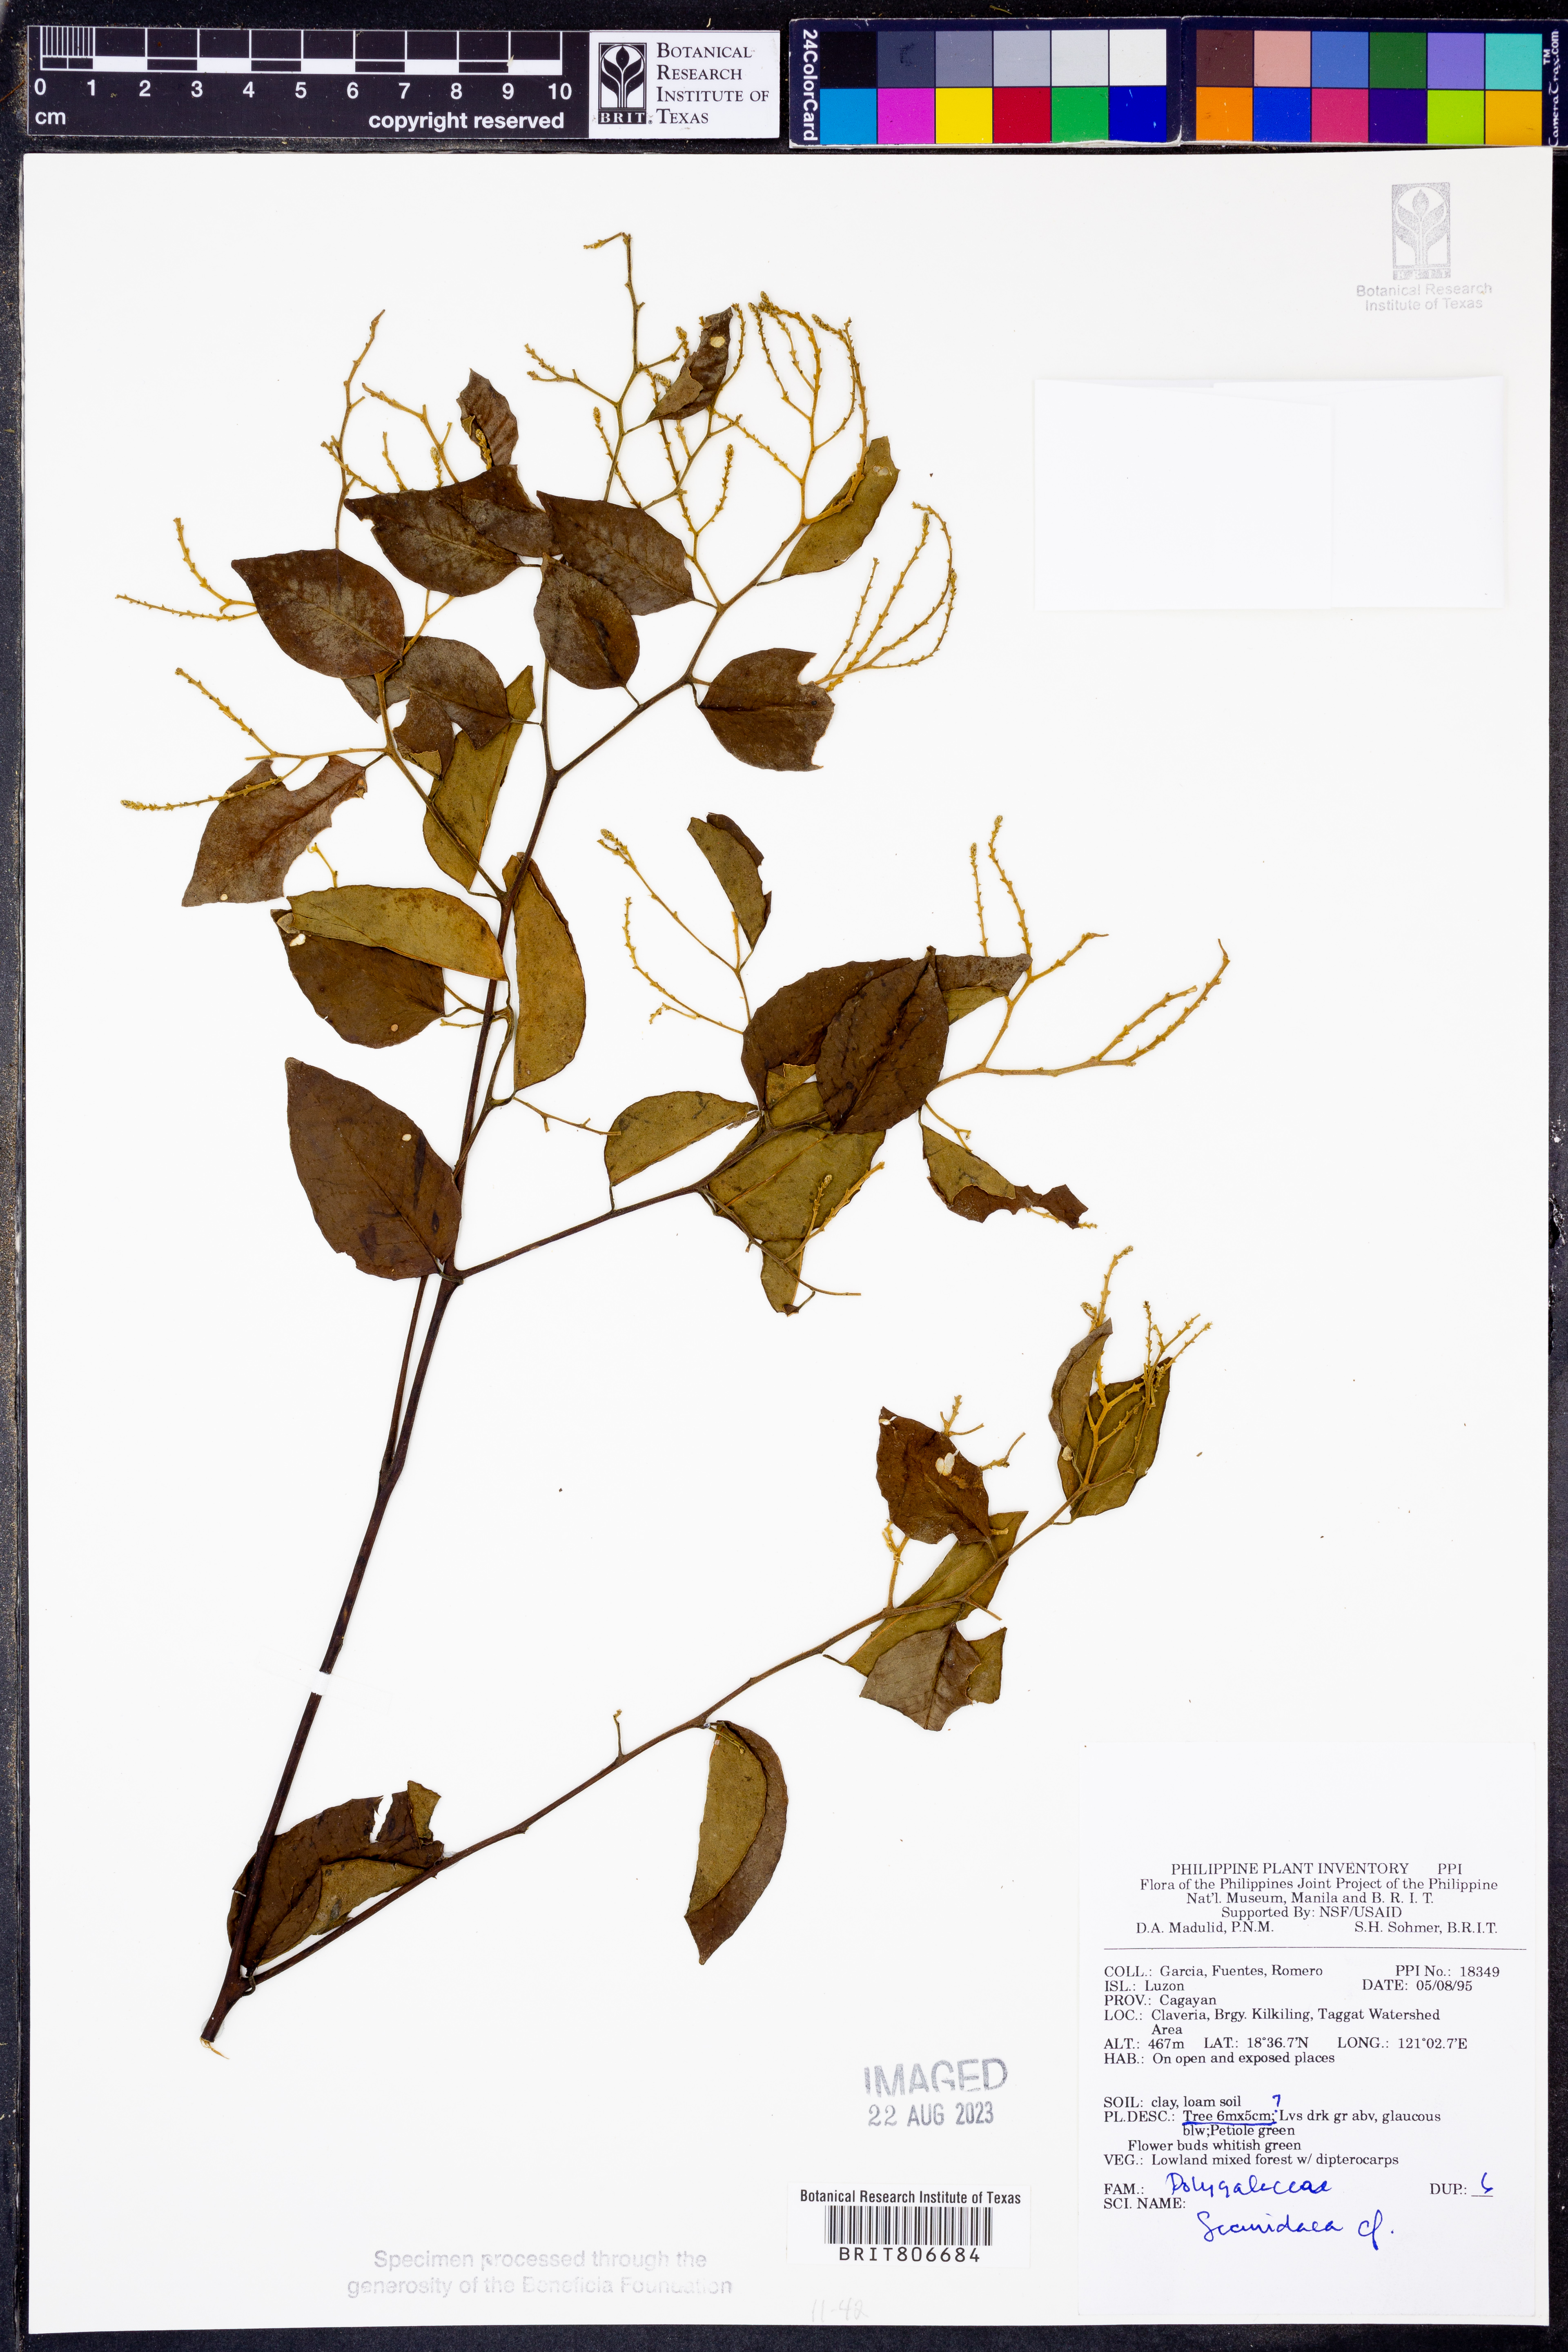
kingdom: Plantae
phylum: Tracheophyta
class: Magnoliopsida
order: Fabales
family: Polygalaceae
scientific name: Polygalaceae
